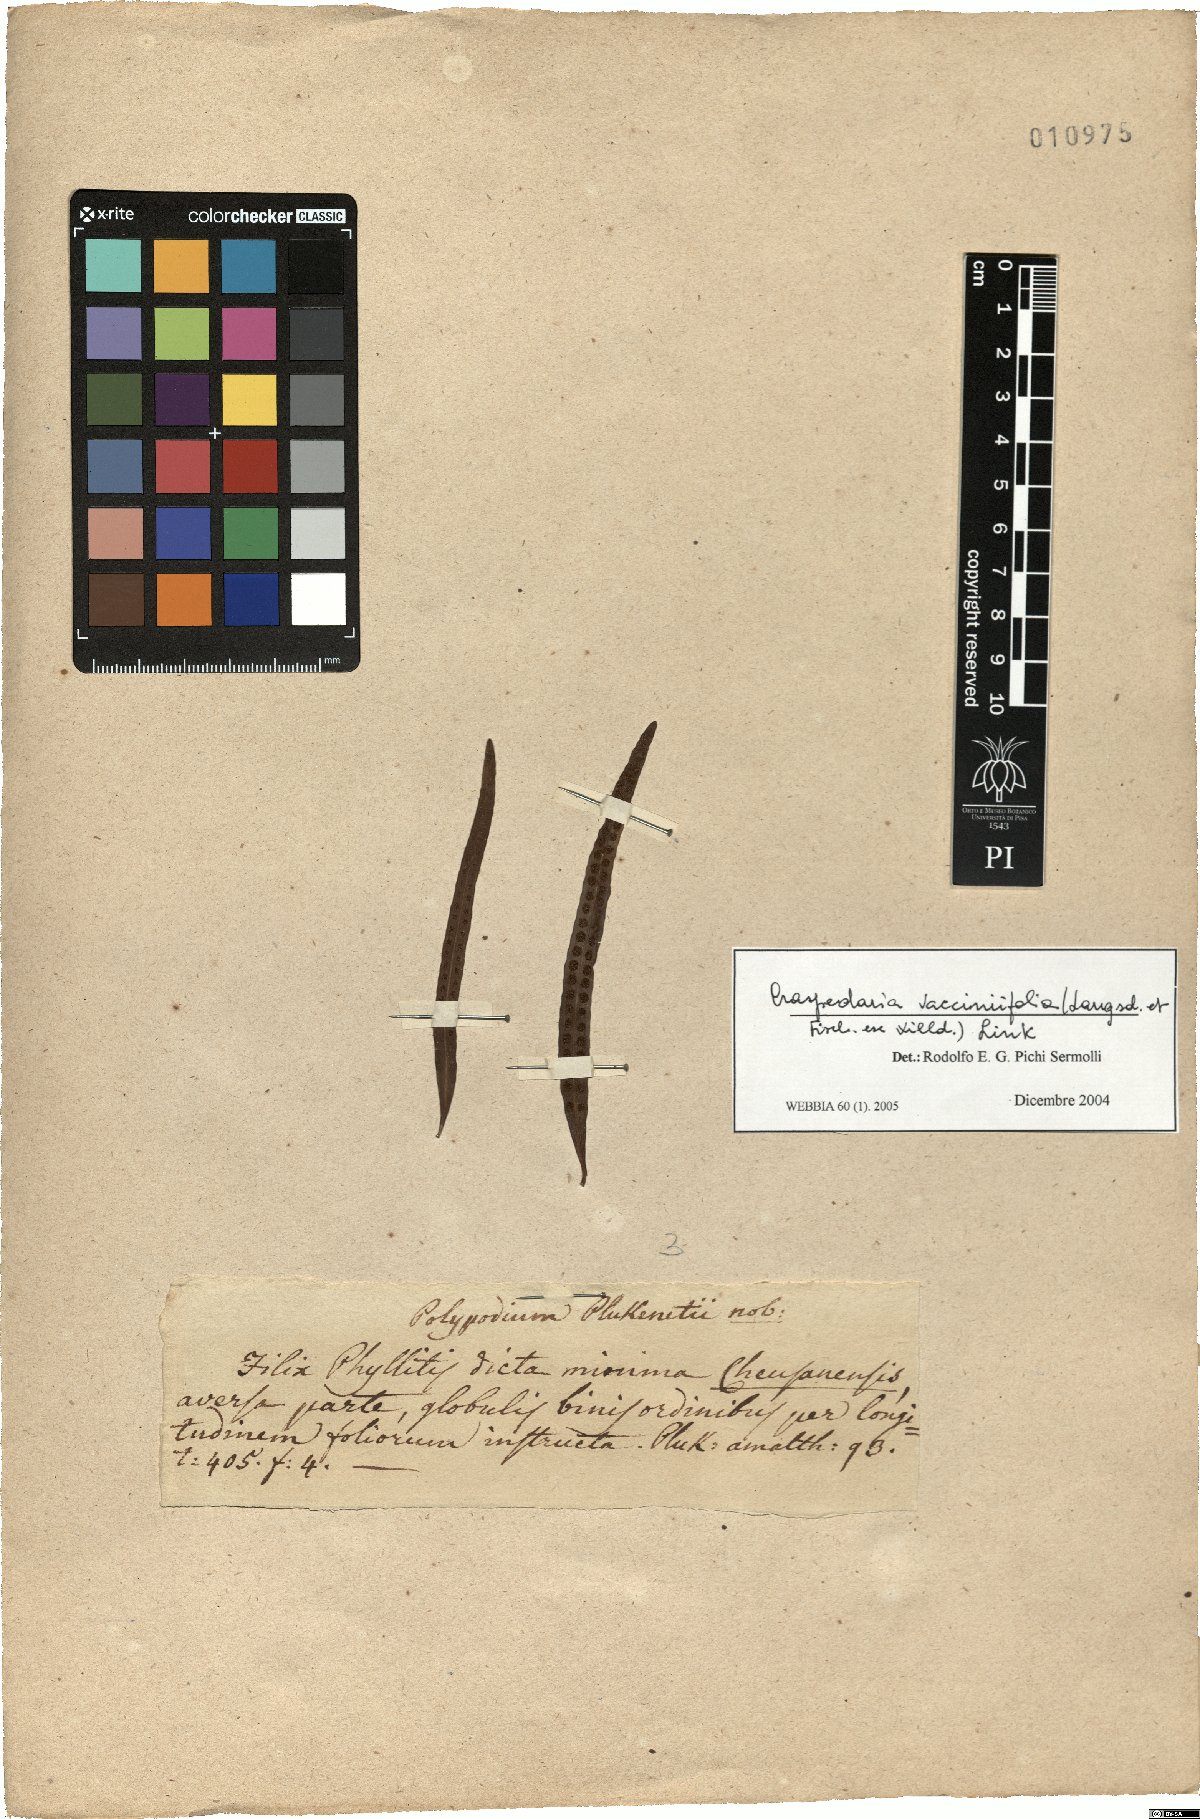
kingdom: Plantae
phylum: Tracheophyta
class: Polypodiopsida
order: Polypodiales
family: Polypodiaceae
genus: Microgramma
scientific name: Microgramma vaccinifolia
